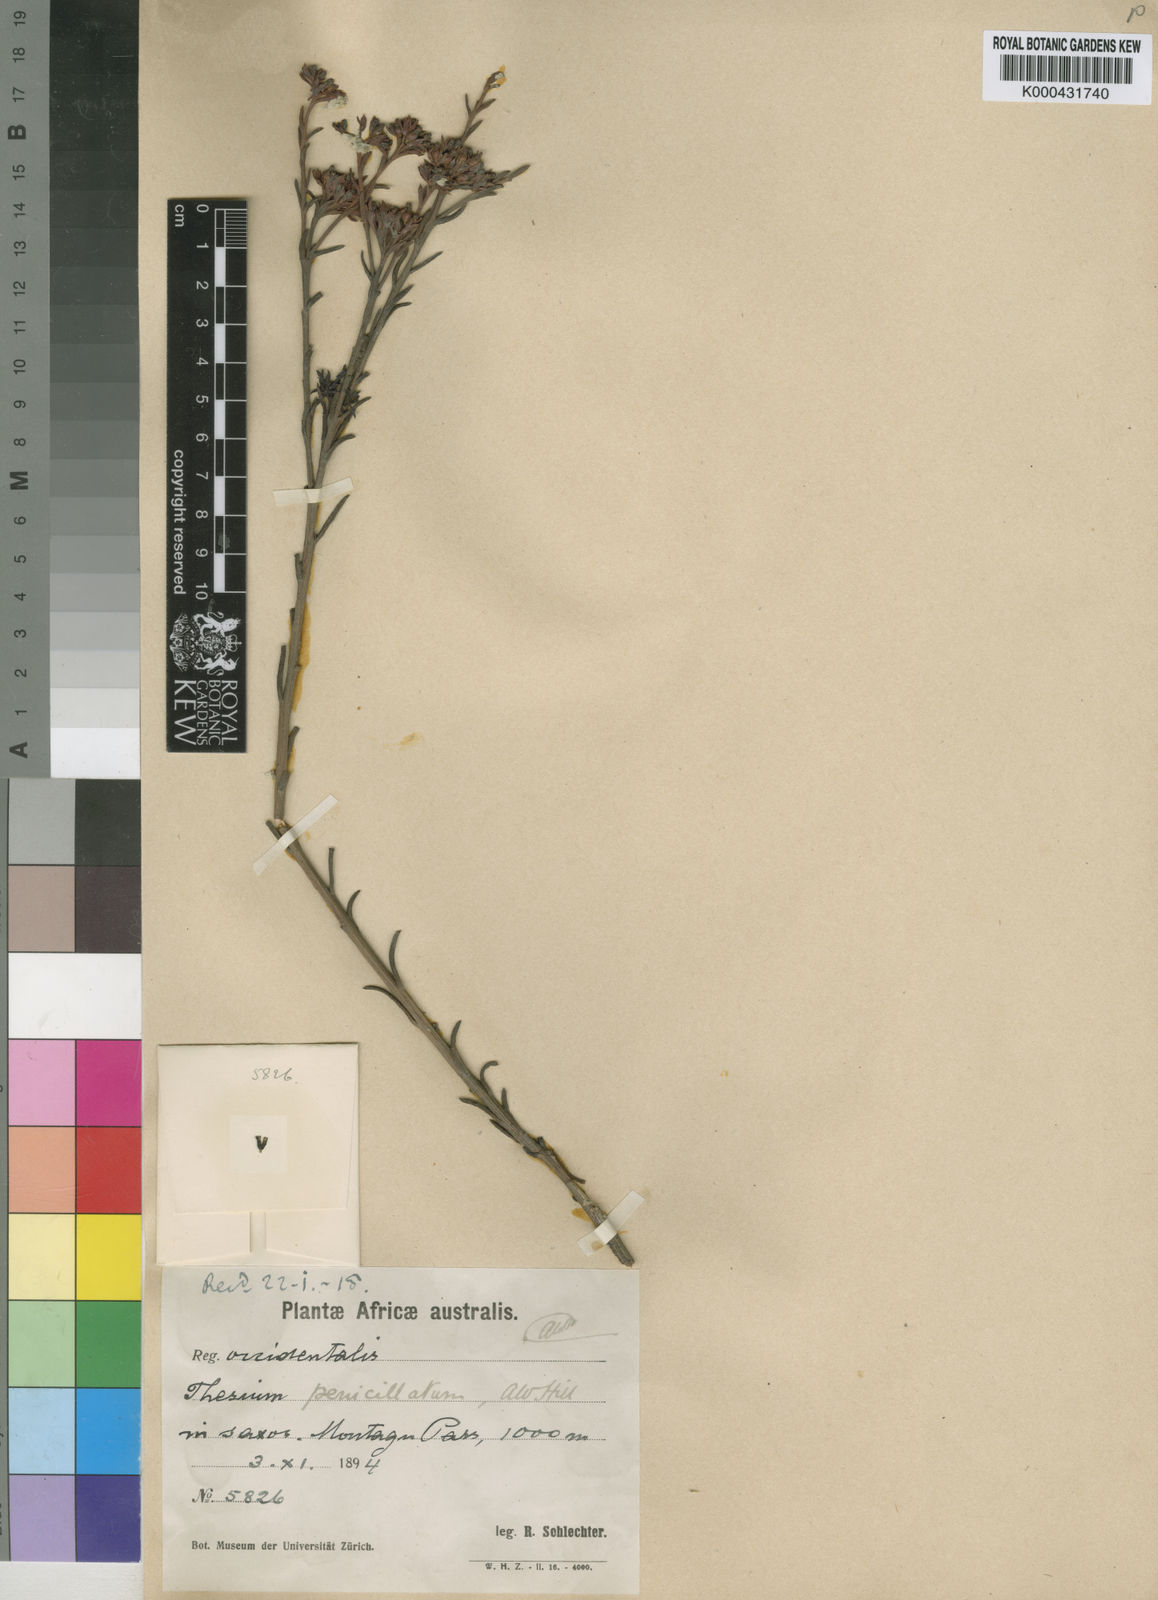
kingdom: Plantae
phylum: Tracheophyta
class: Magnoliopsida
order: Santalales
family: Thesiaceae
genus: Thesium
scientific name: Thesium penicillatum
